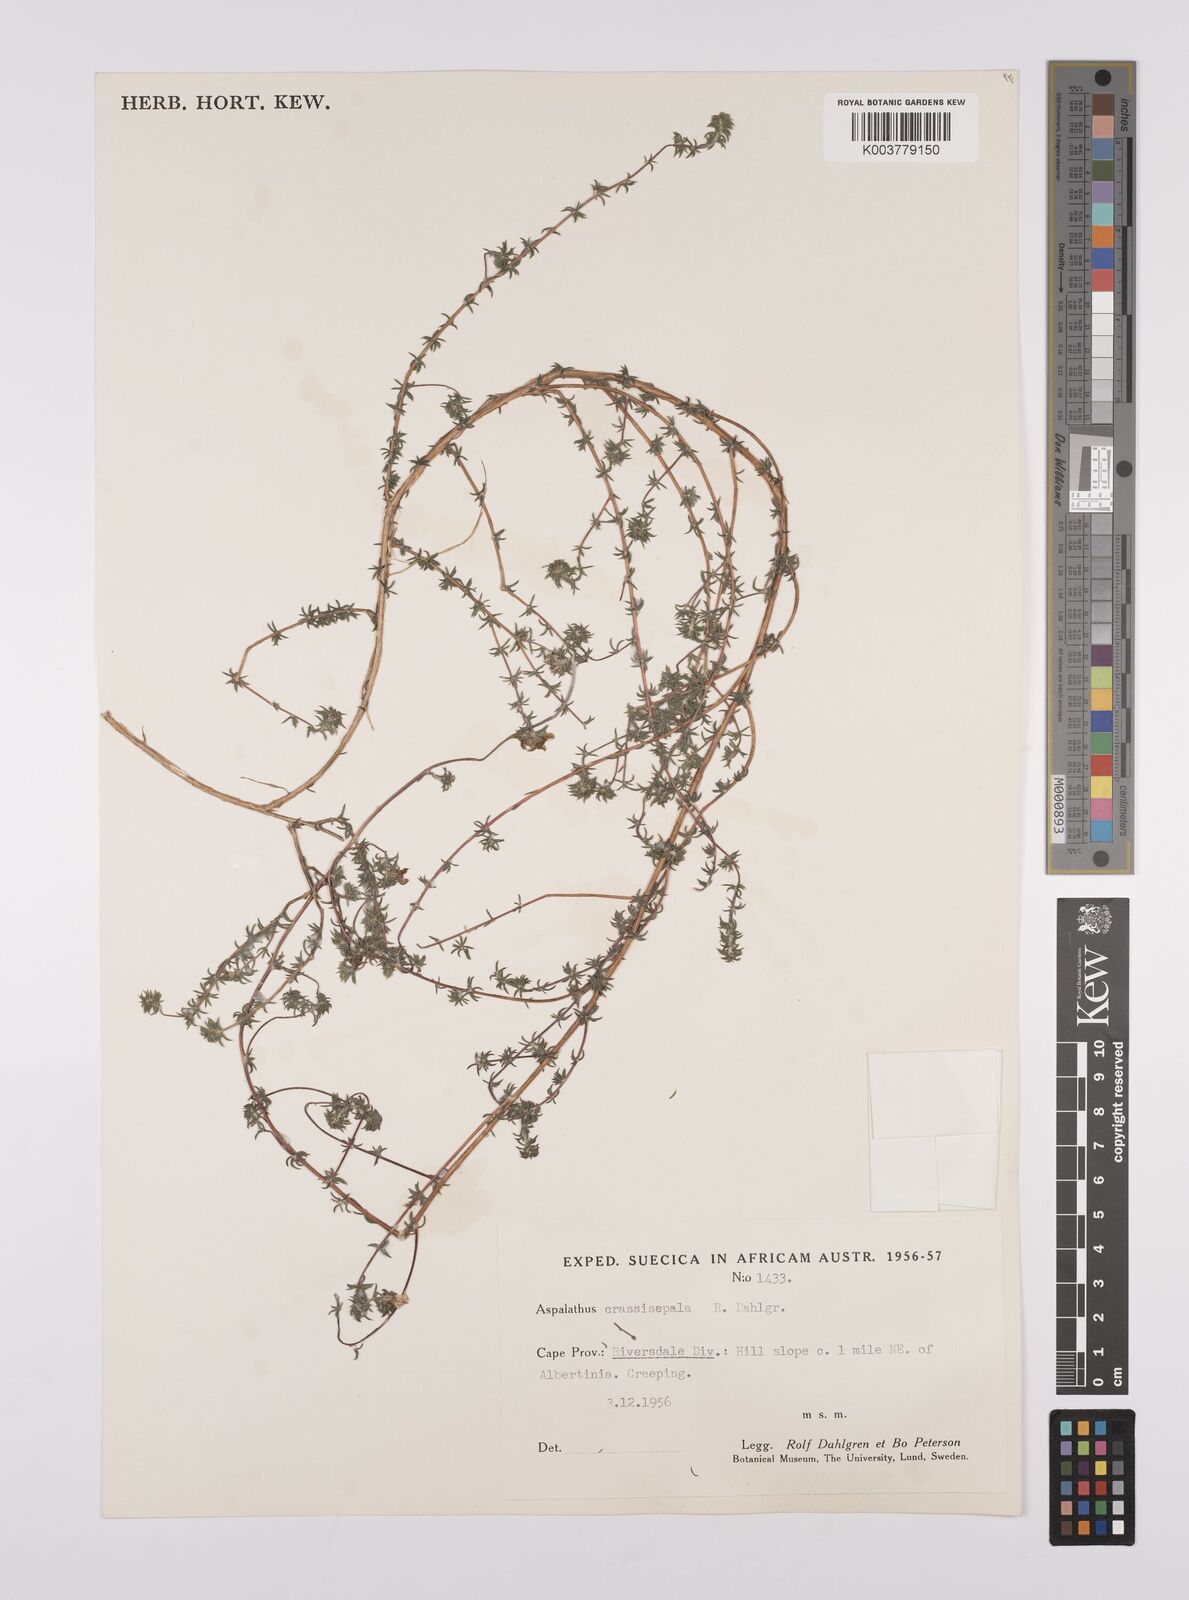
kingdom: Plantae
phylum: Tracheophyta
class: Magnoliopsida
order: Fabales
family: Fabaceae
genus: Aspalathus
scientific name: Aspalathus crassisepala
